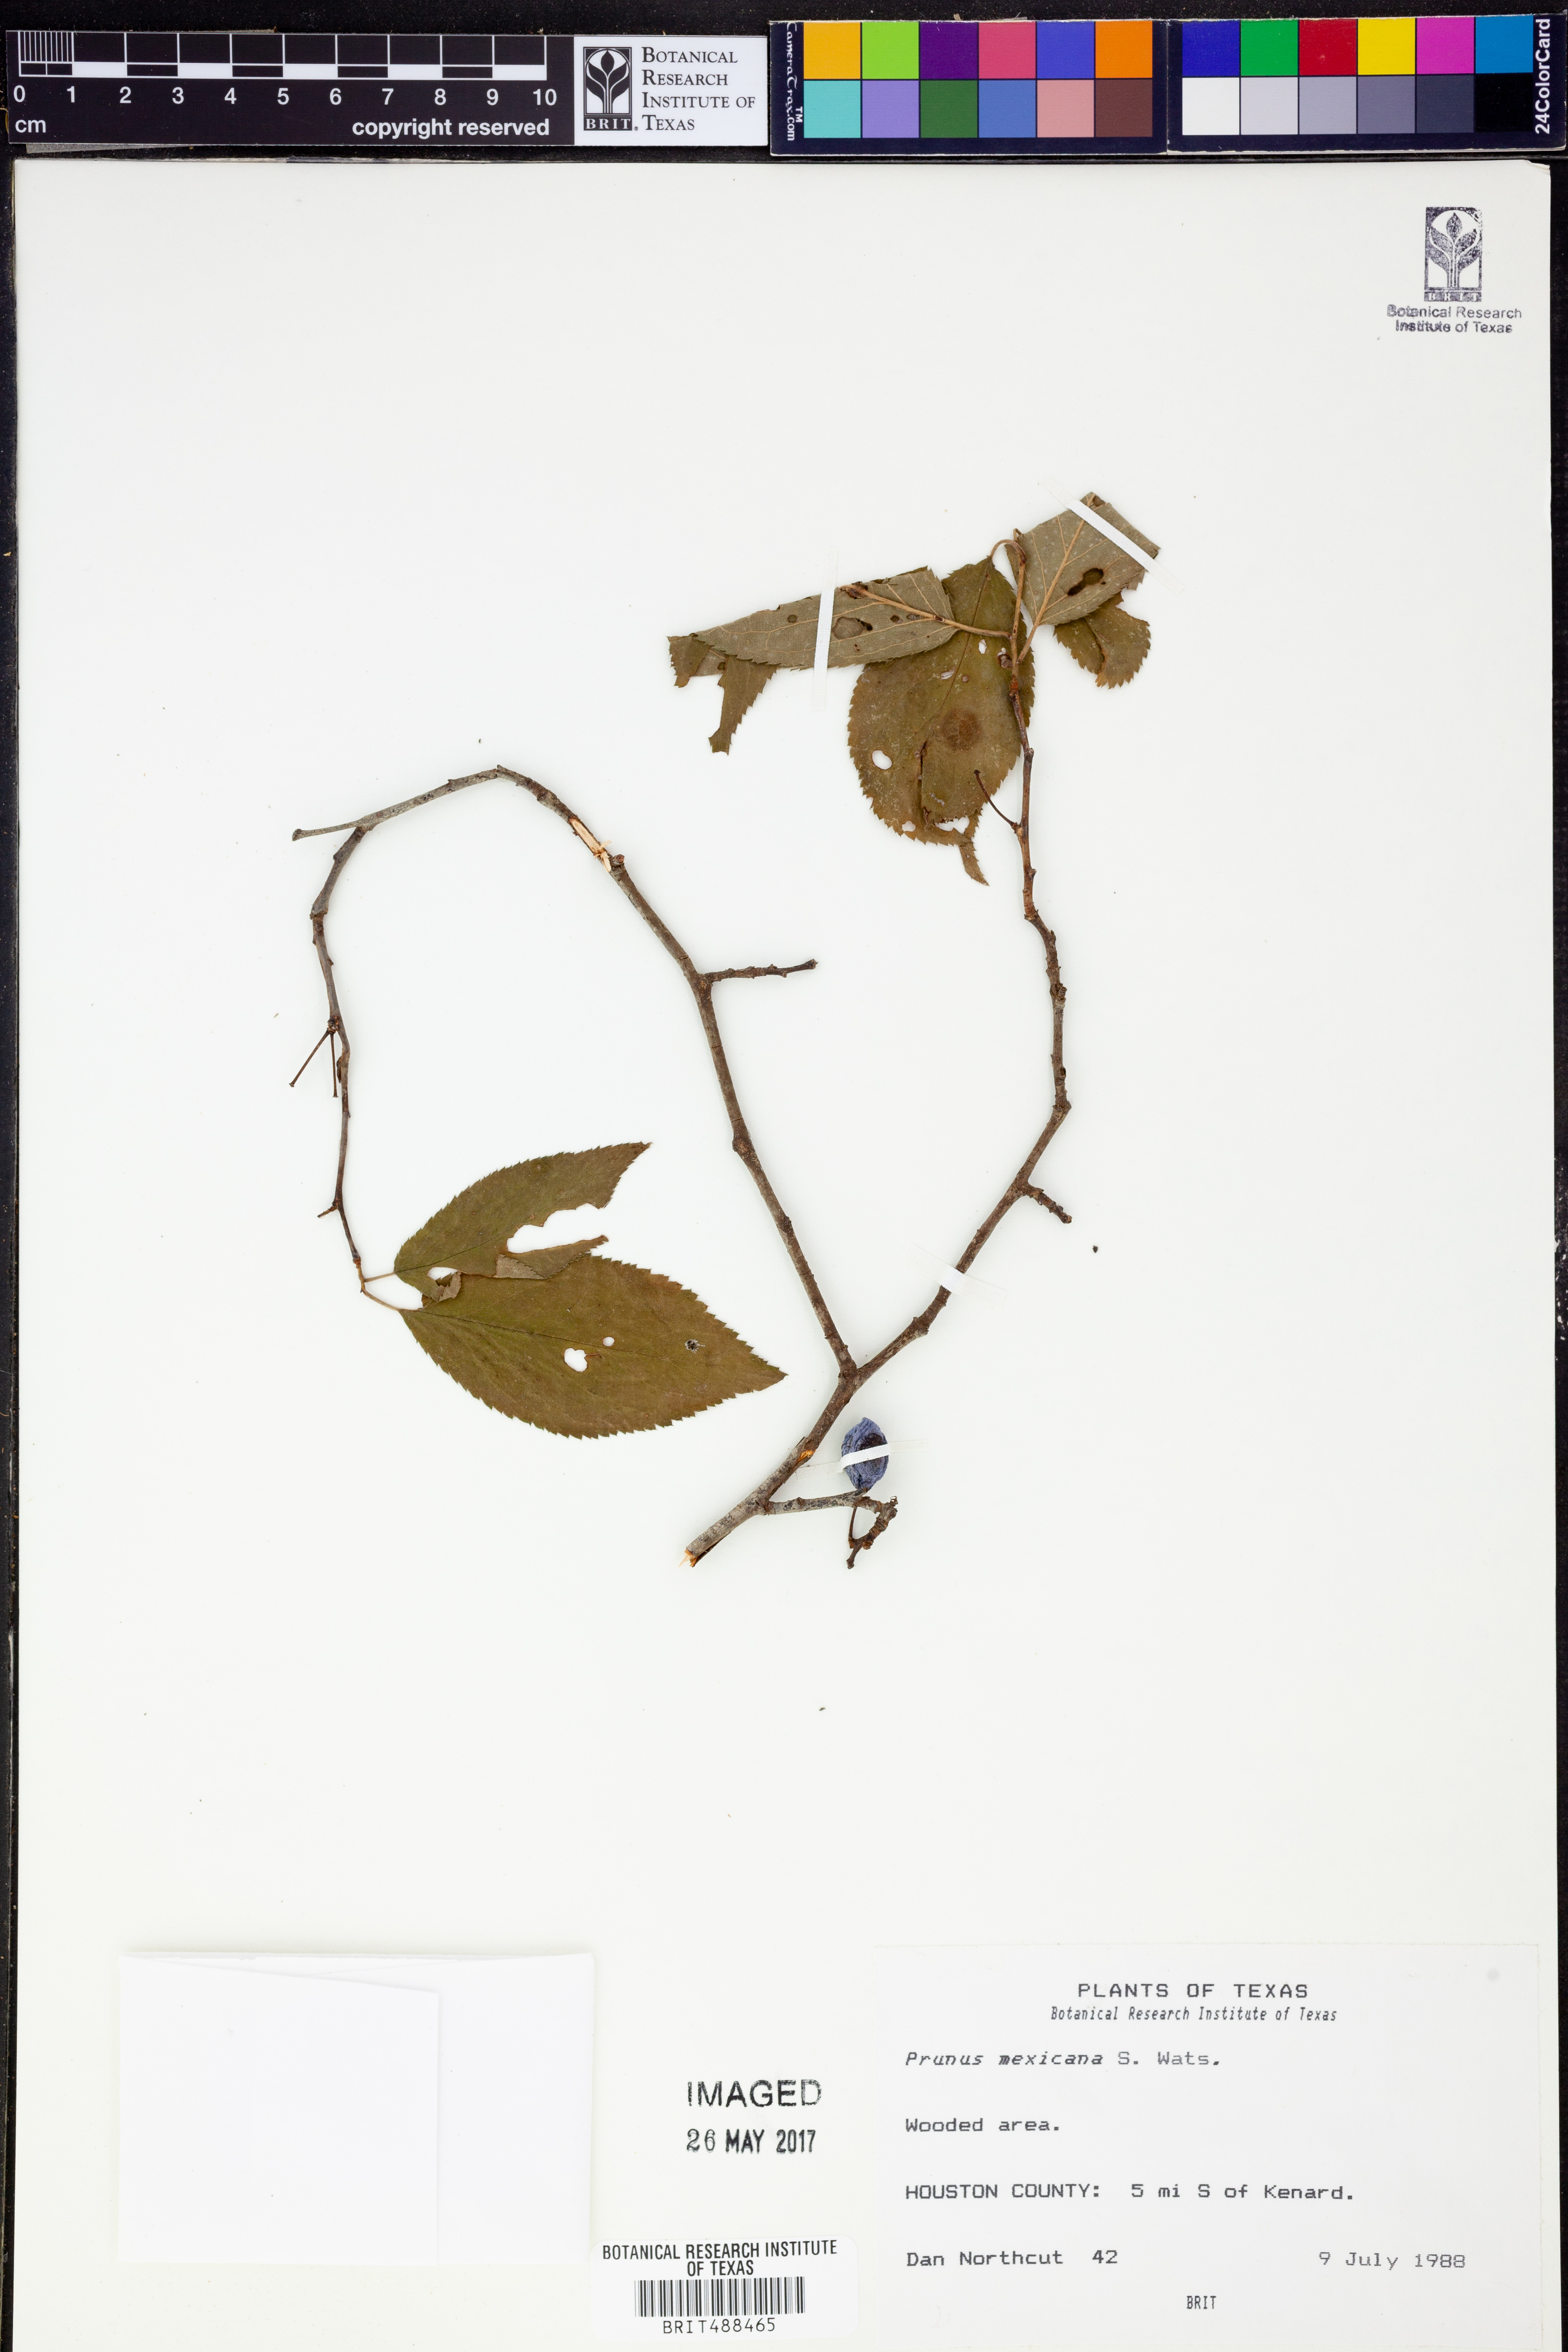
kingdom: Plantae
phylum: Tracheophyta
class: Magnoliopsida
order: Rosales
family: Rosaceae
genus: Prunus
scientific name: Prunus mexicana
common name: Mexican plum
